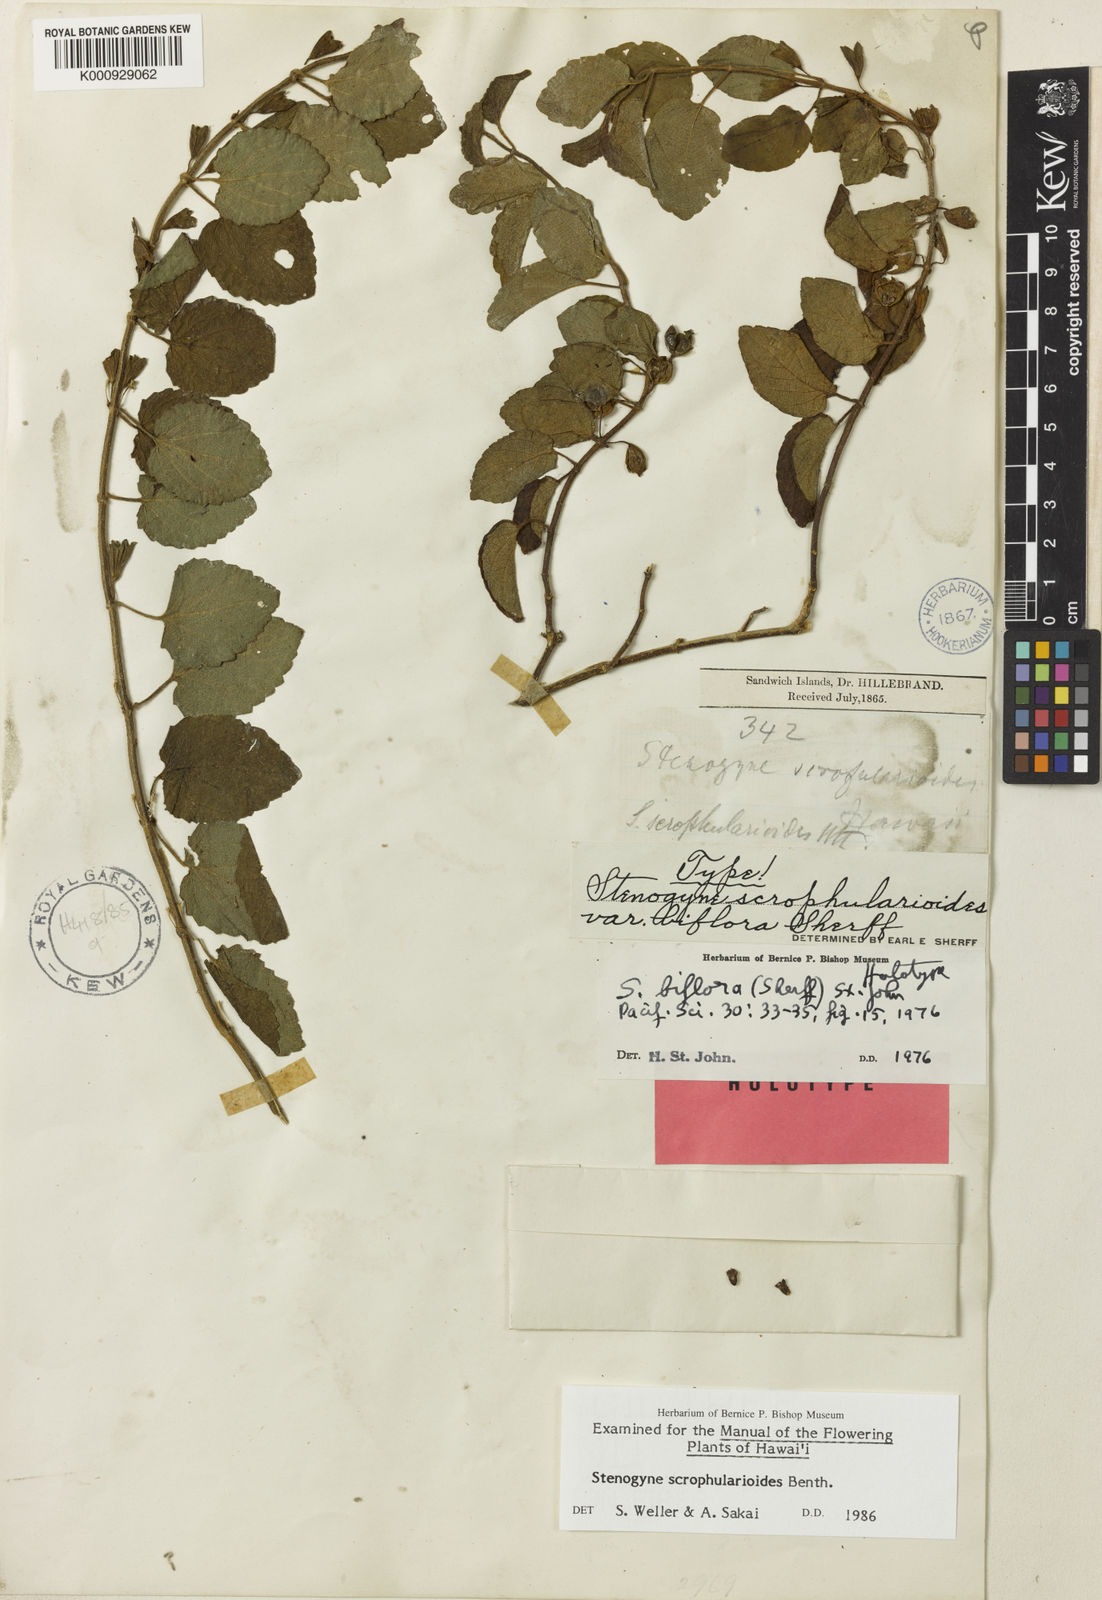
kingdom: Plantae
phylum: Tracheophyta
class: Magnoliopsida
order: Lamiales
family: Lamiaceae
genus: Stenogyne
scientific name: Stenogyne scrophularioides
